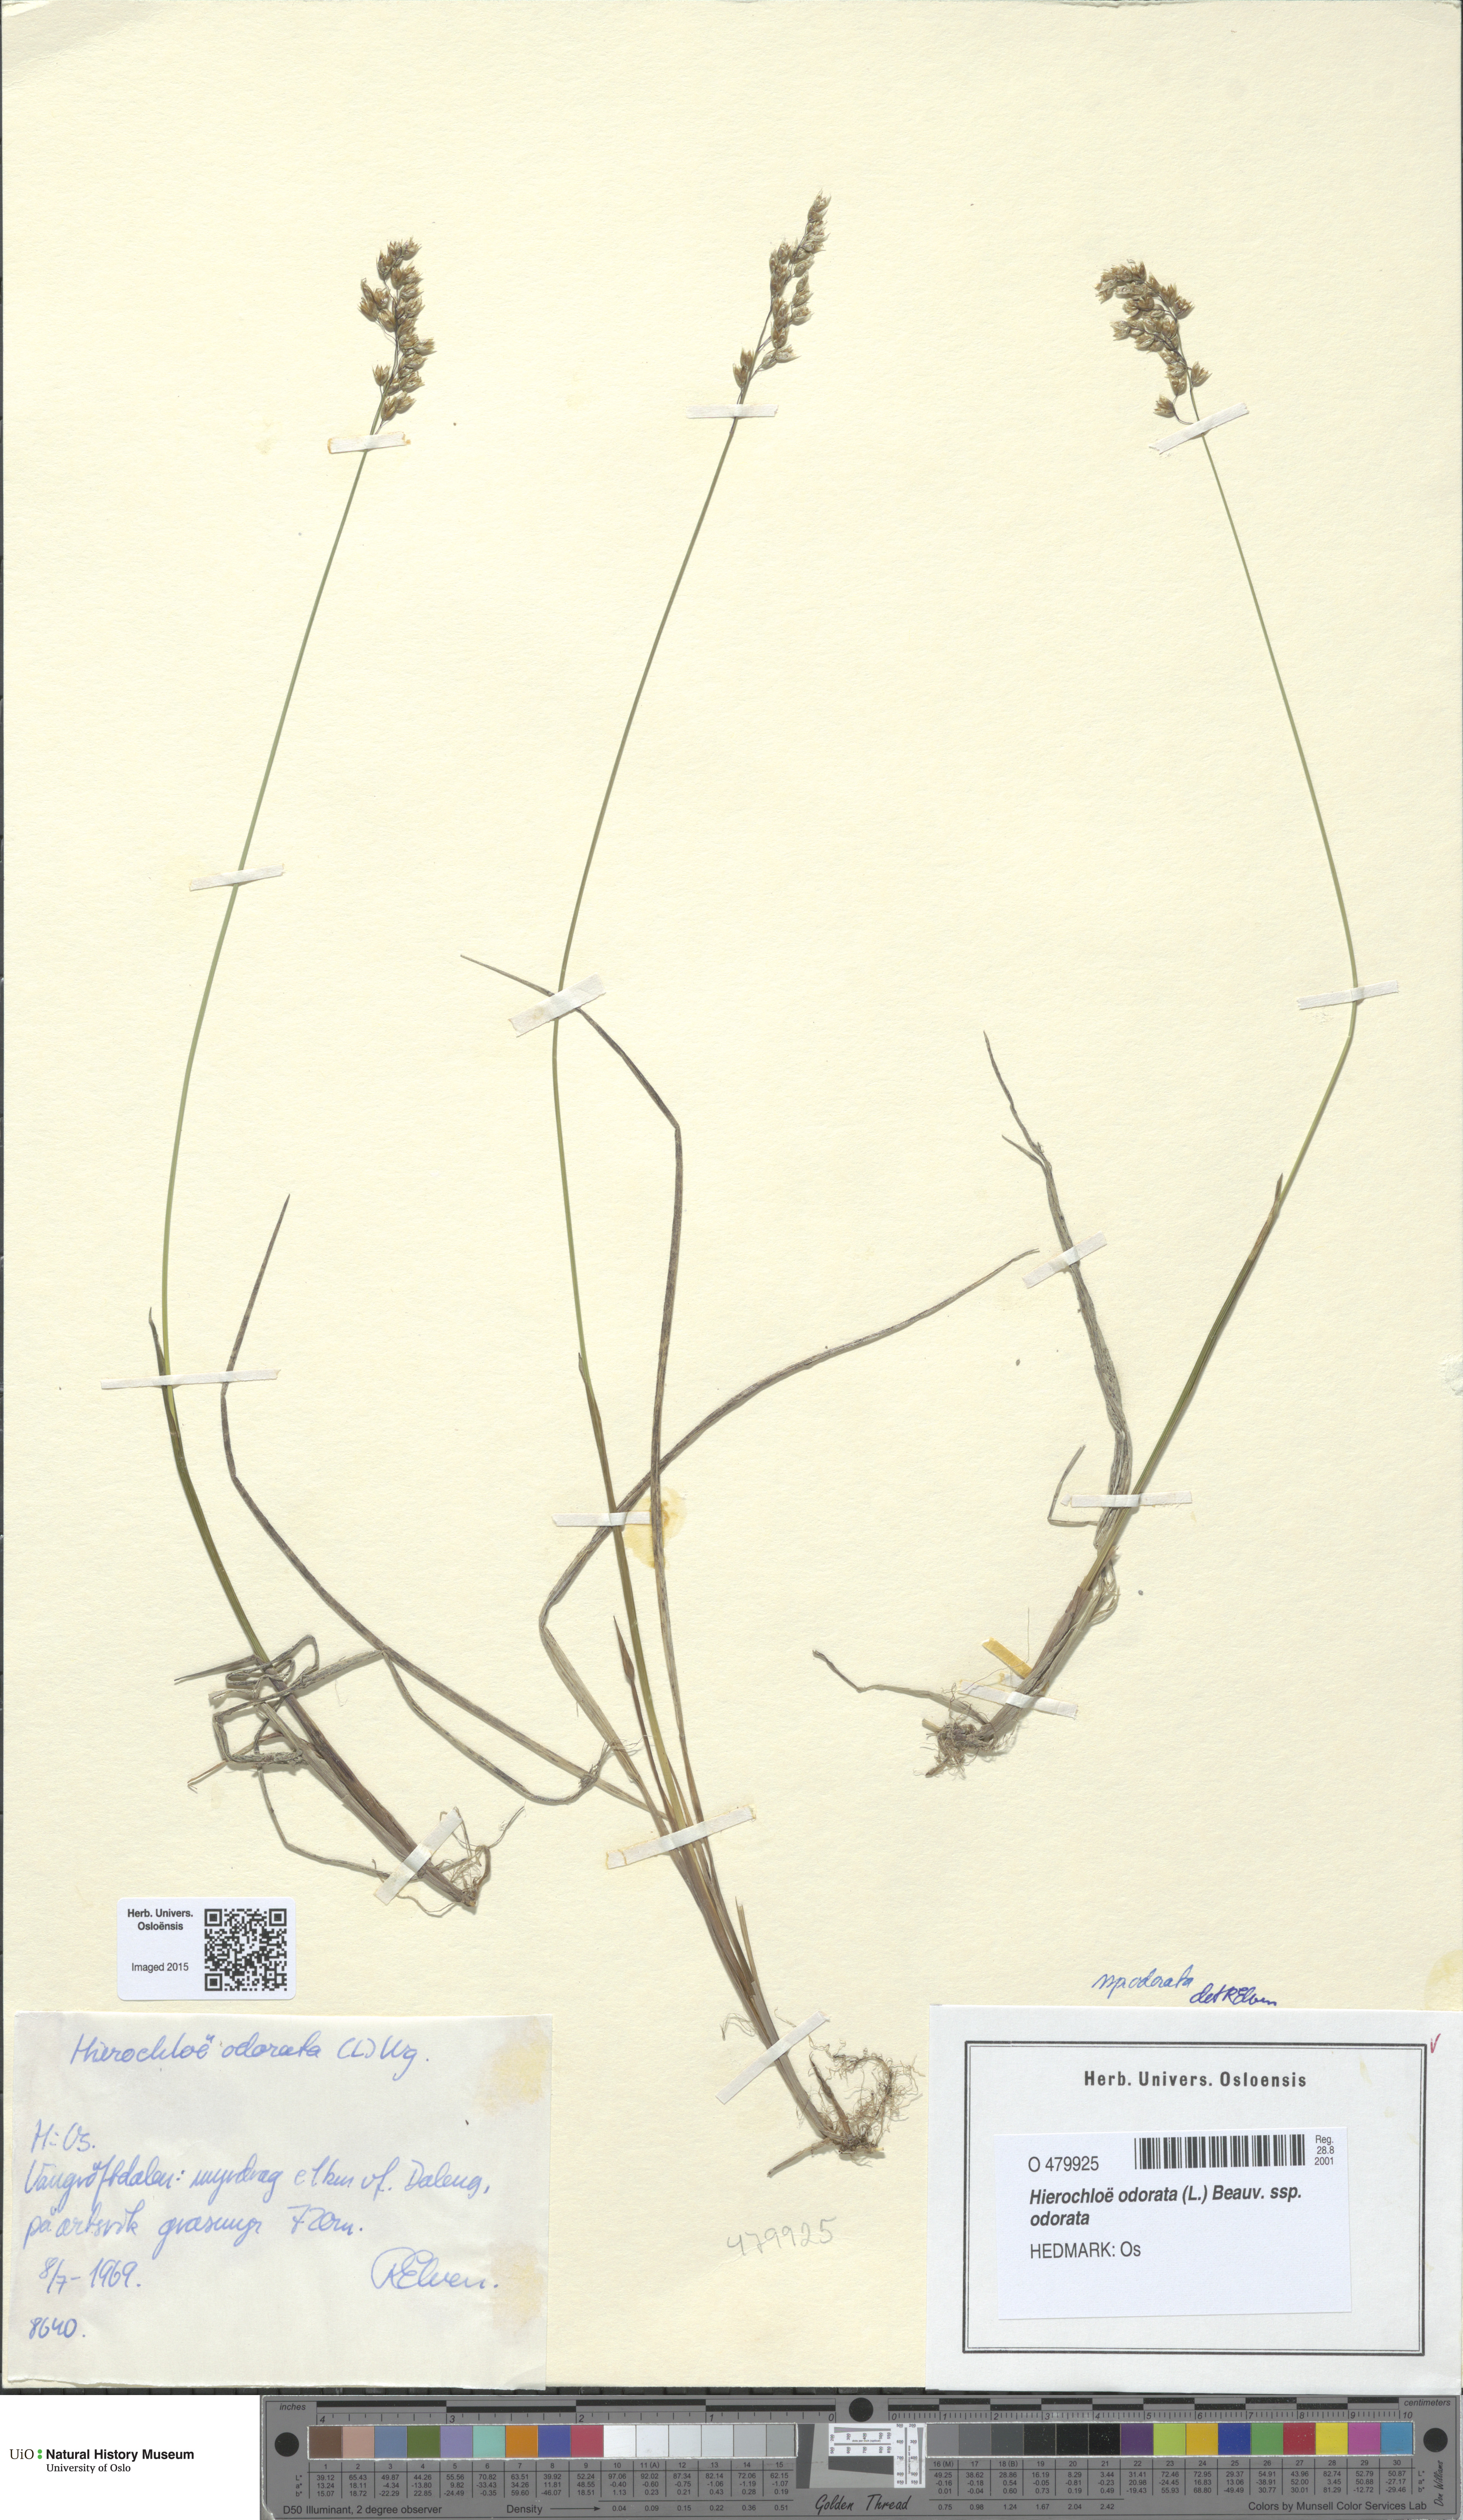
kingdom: Plantae
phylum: Tracheophyta
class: Liliopsida
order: Poales
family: Poaceae
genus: Anthoxanthum
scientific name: Anthoxanthum nitens
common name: Holy grass
